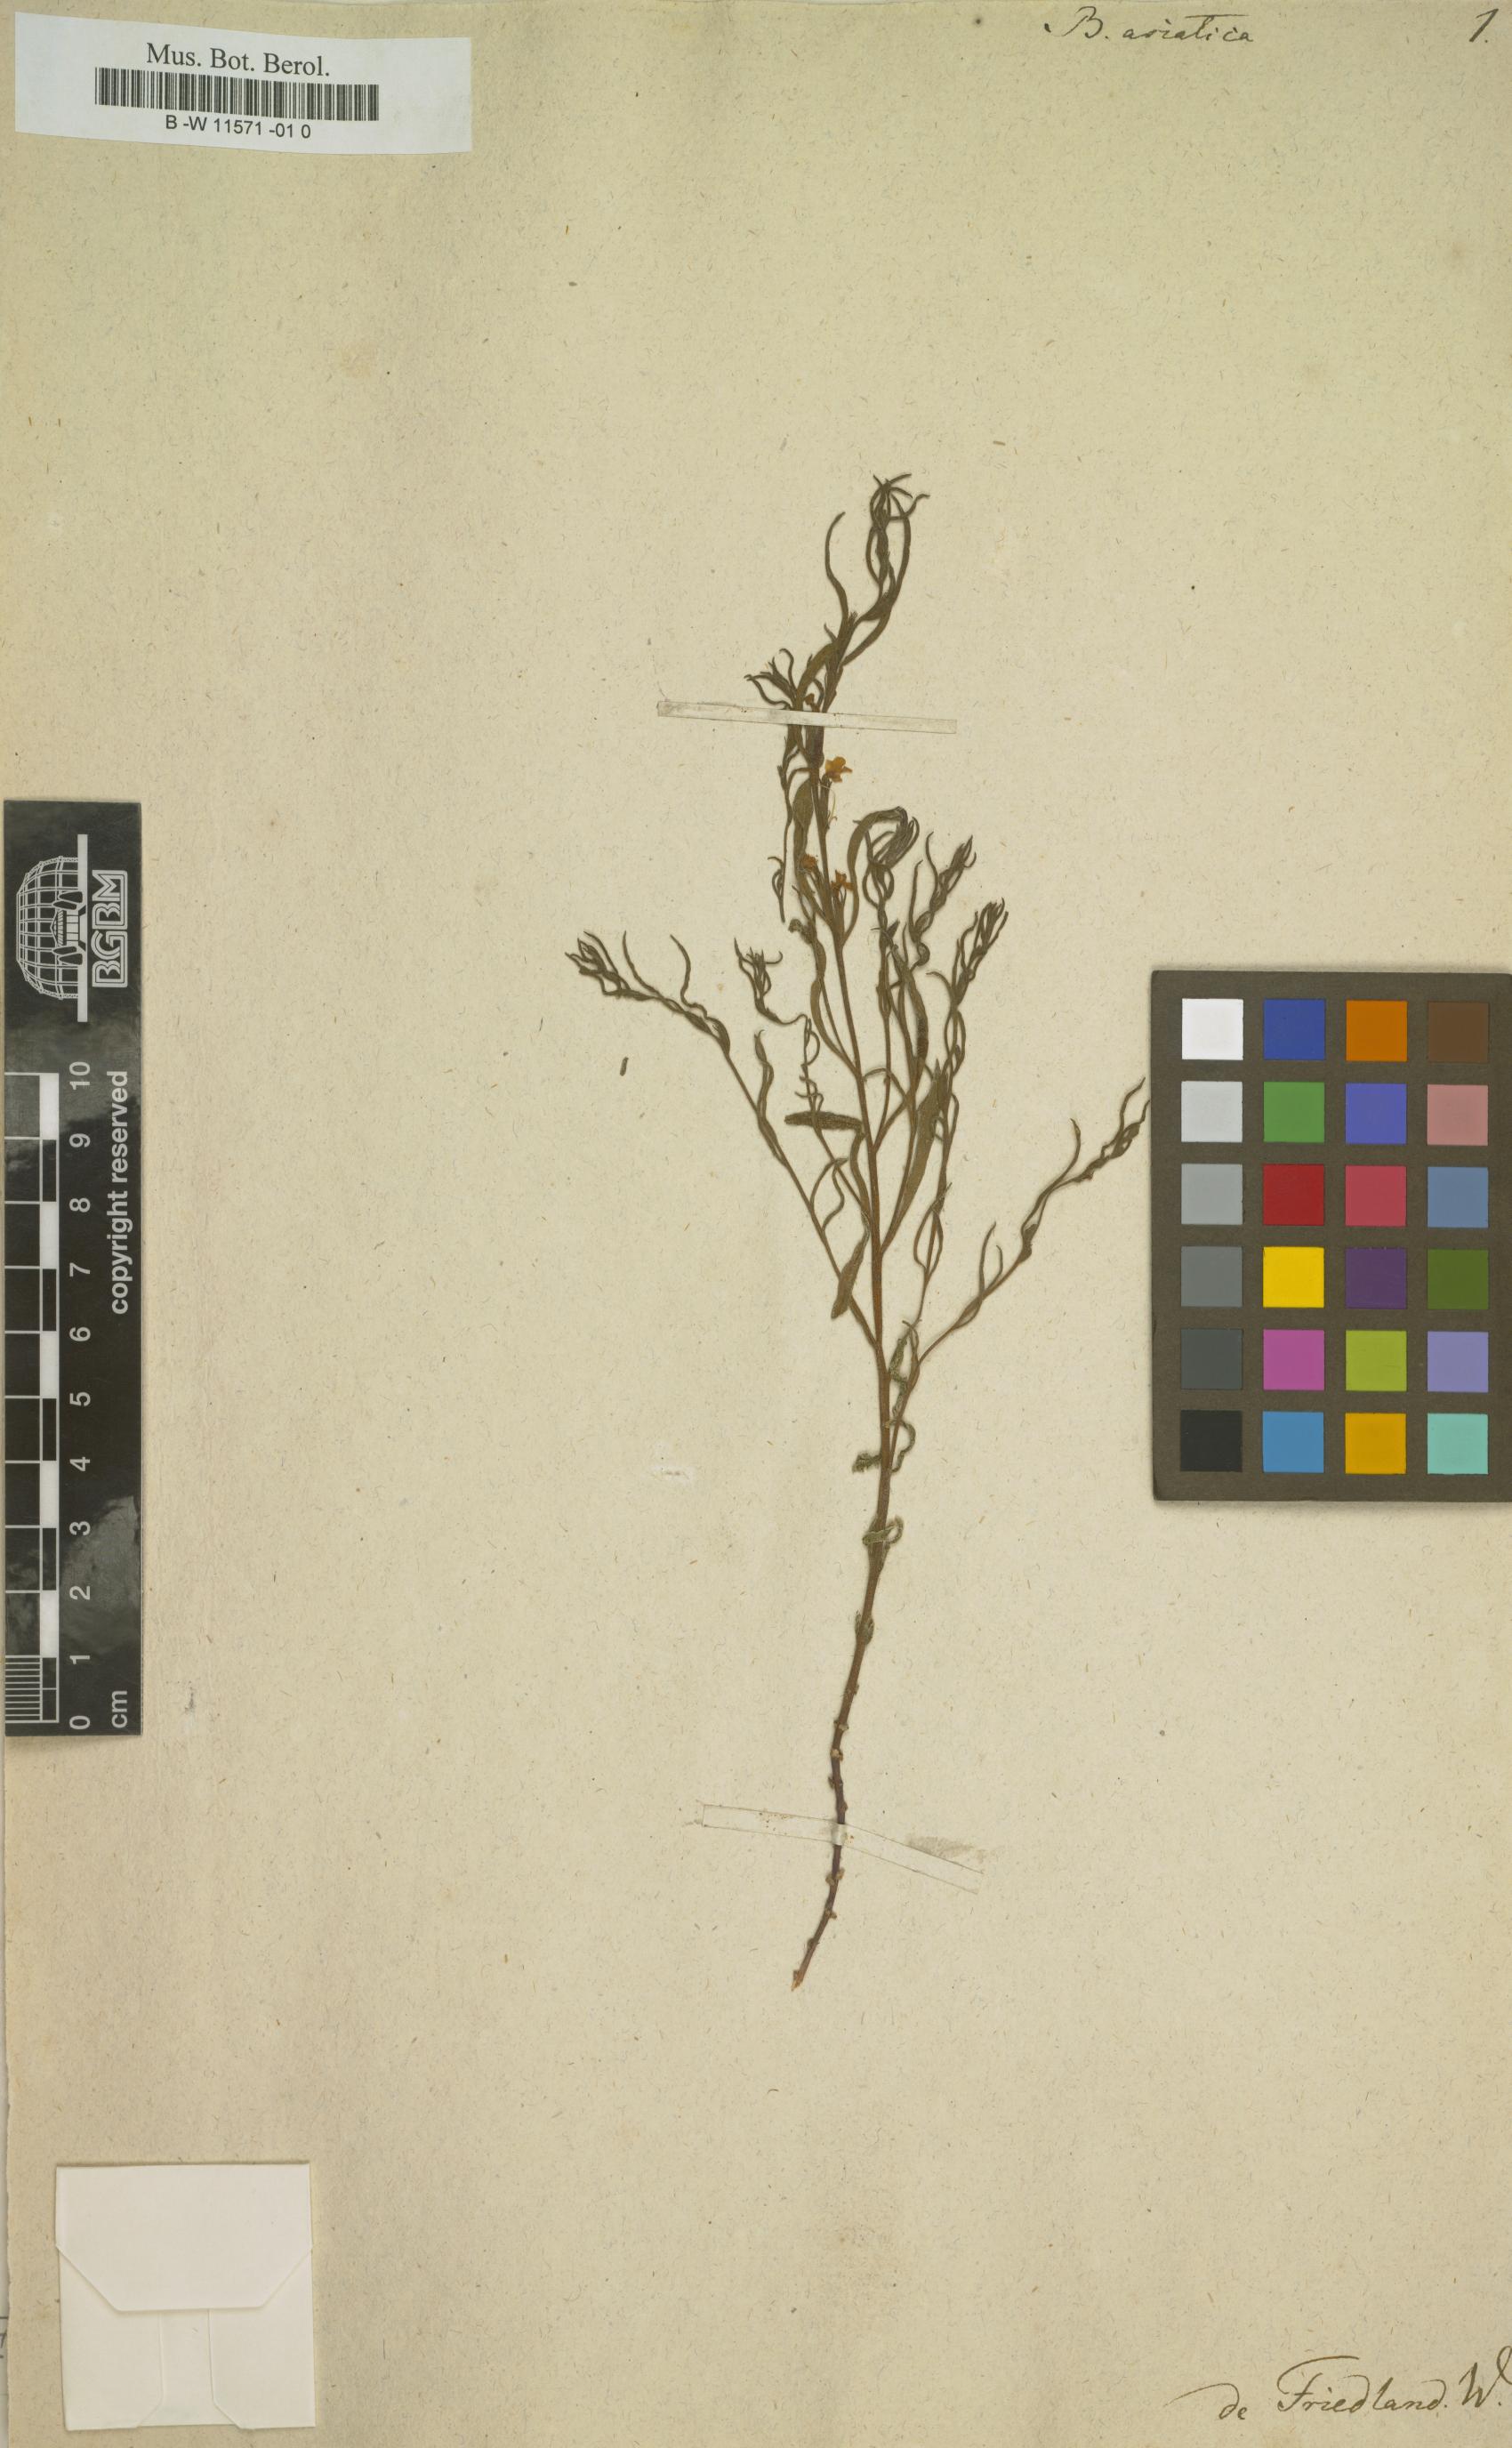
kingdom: Plantae
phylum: Tracheophyta
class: Magnoliopsida
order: Lamiales
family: Orobanchaceae
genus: Striga
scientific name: Striga asiatica
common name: Asiatic witchweed
